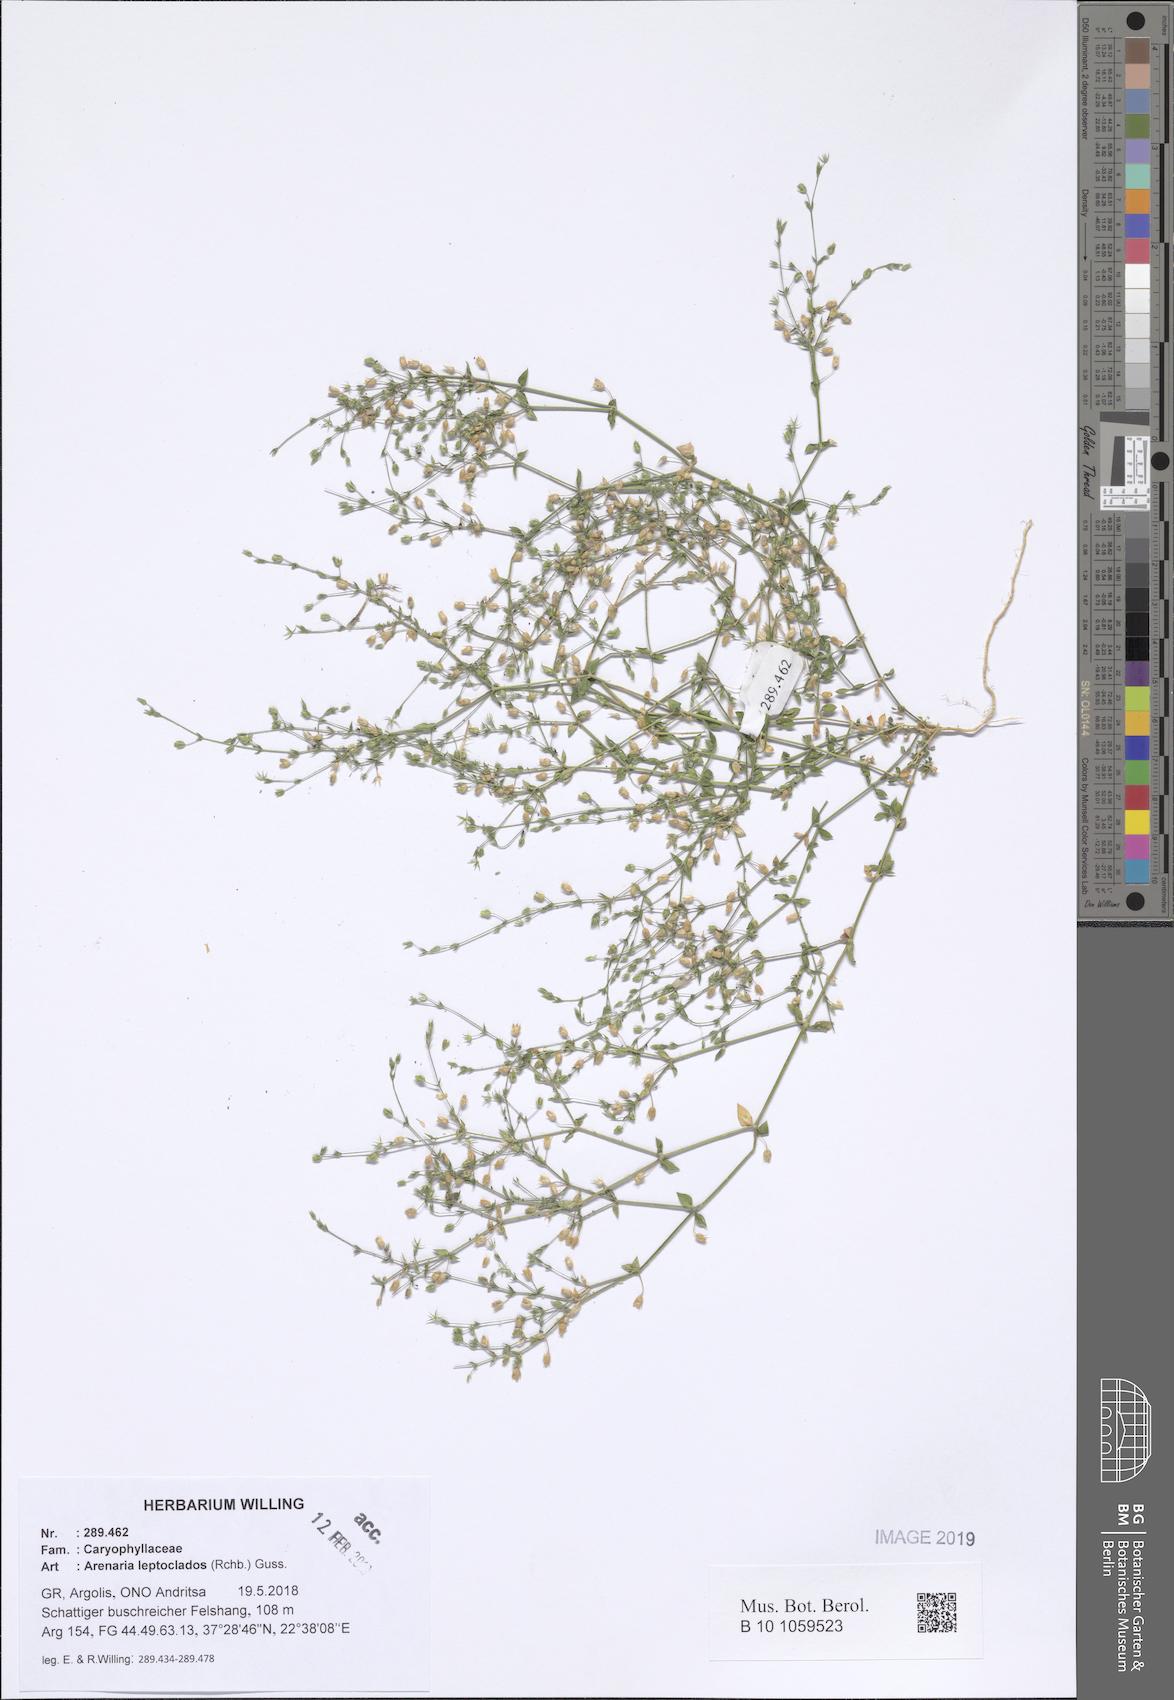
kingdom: Plantae
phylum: Tracheophyta
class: Magnoliopsida
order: Caryophyllales
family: Caryophyllaceae
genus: Arenaria
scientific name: Arenaria leptoclados
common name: Thyme-leaved sandwort
